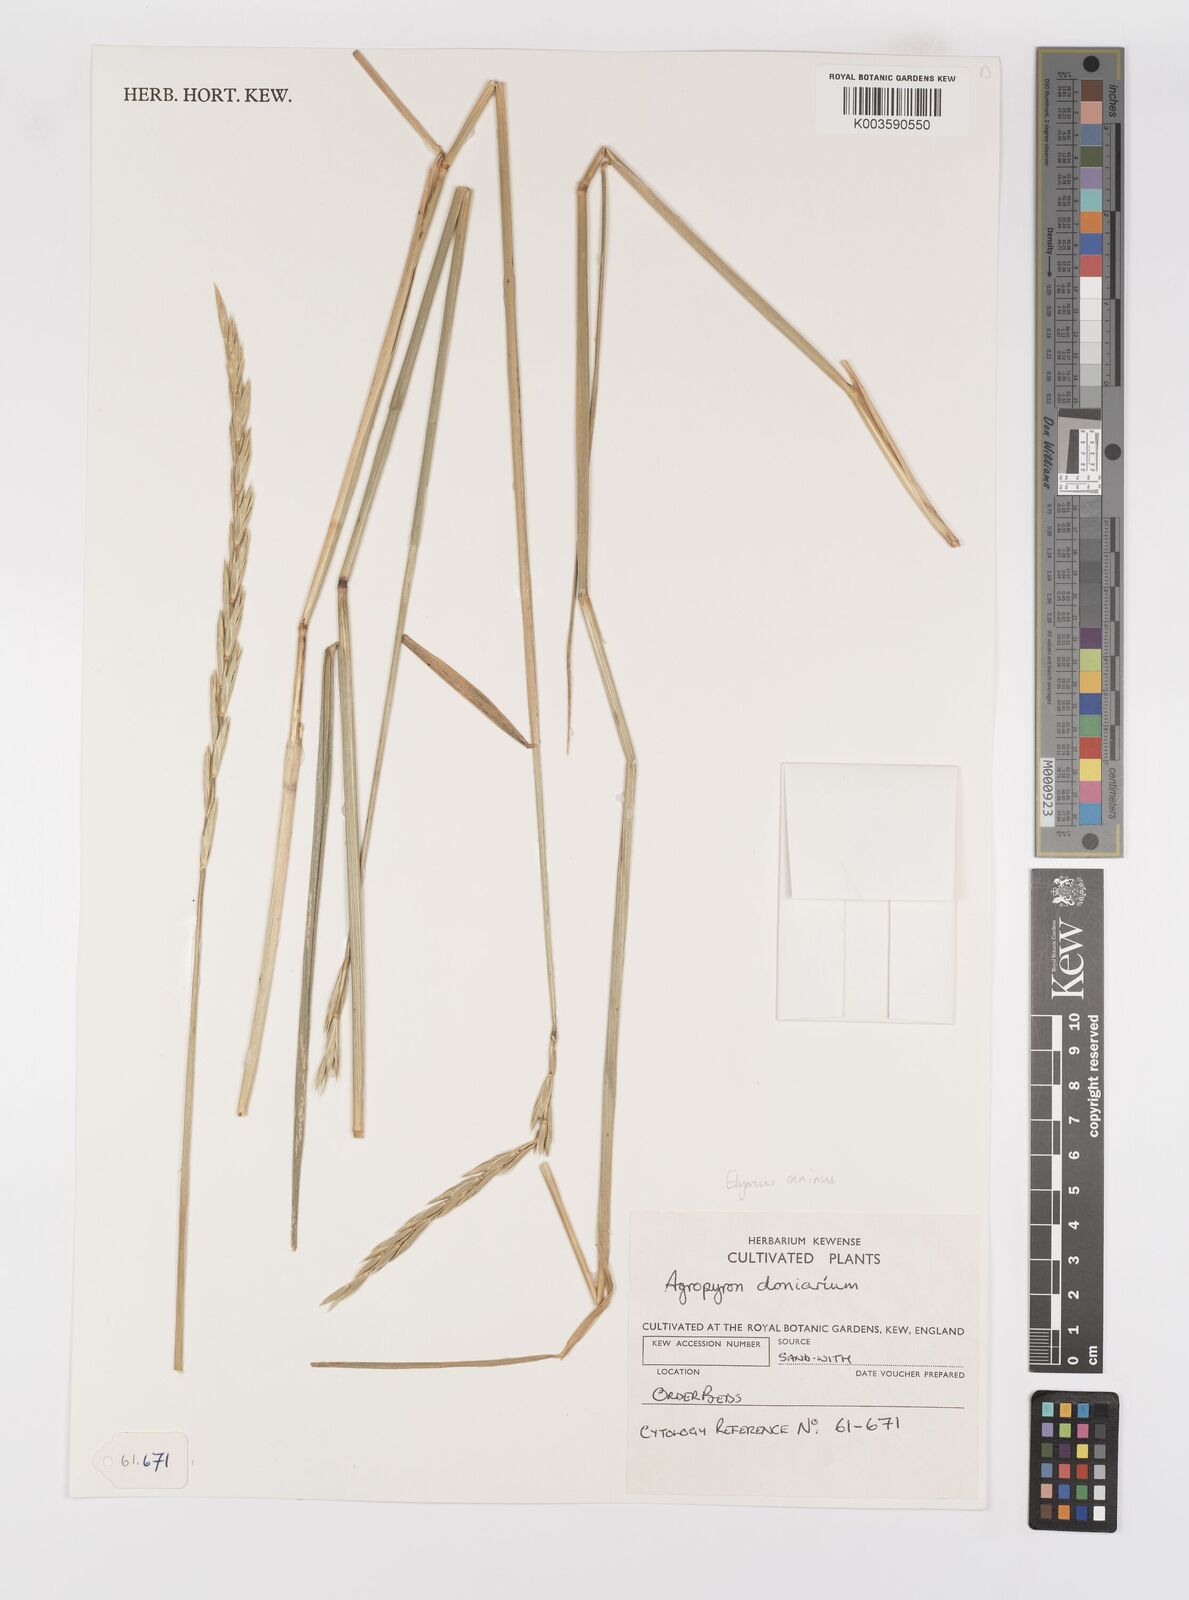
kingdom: Plantae
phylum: Tracheophyta
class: Liliopsida
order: Poales
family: Poaceae
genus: Elymus
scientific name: Elymus caninus
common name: Bearded couch
